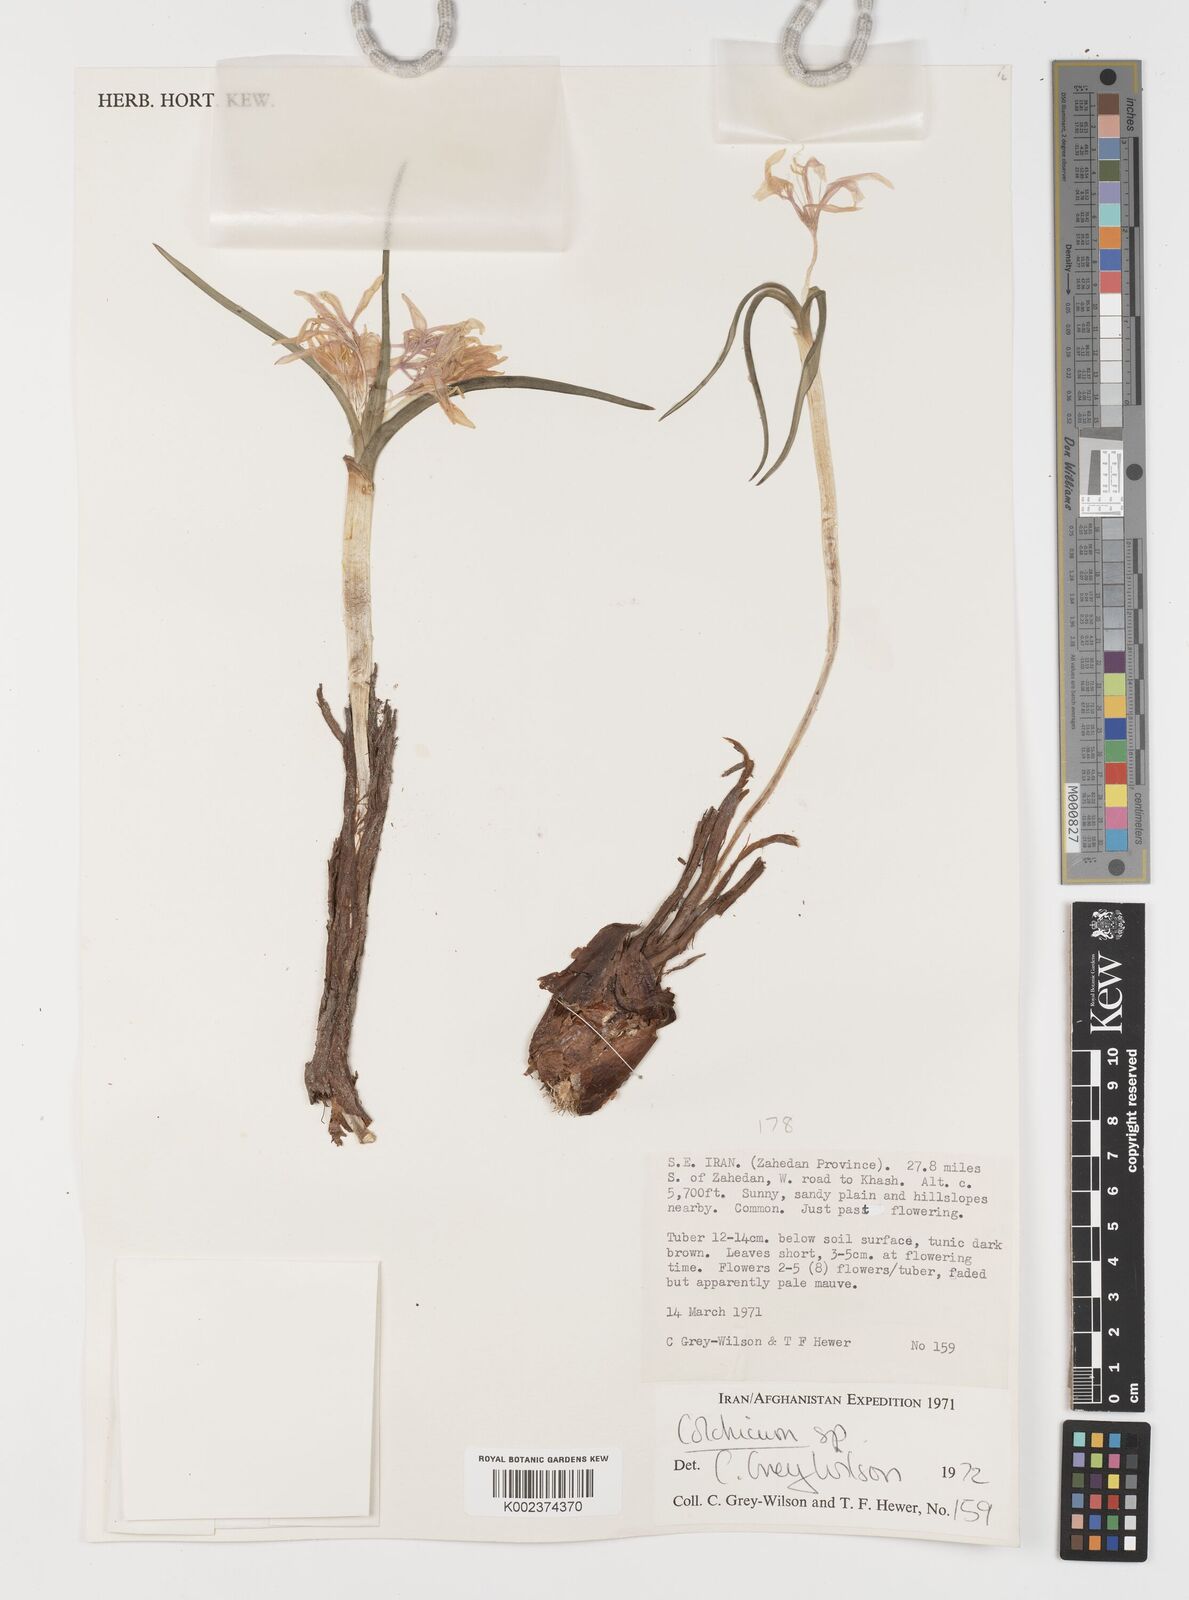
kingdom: Plantae
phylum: Tracheophyta
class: Liliopsida
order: Liliales
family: Colchicaceae
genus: Colchicum
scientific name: Colchicum
